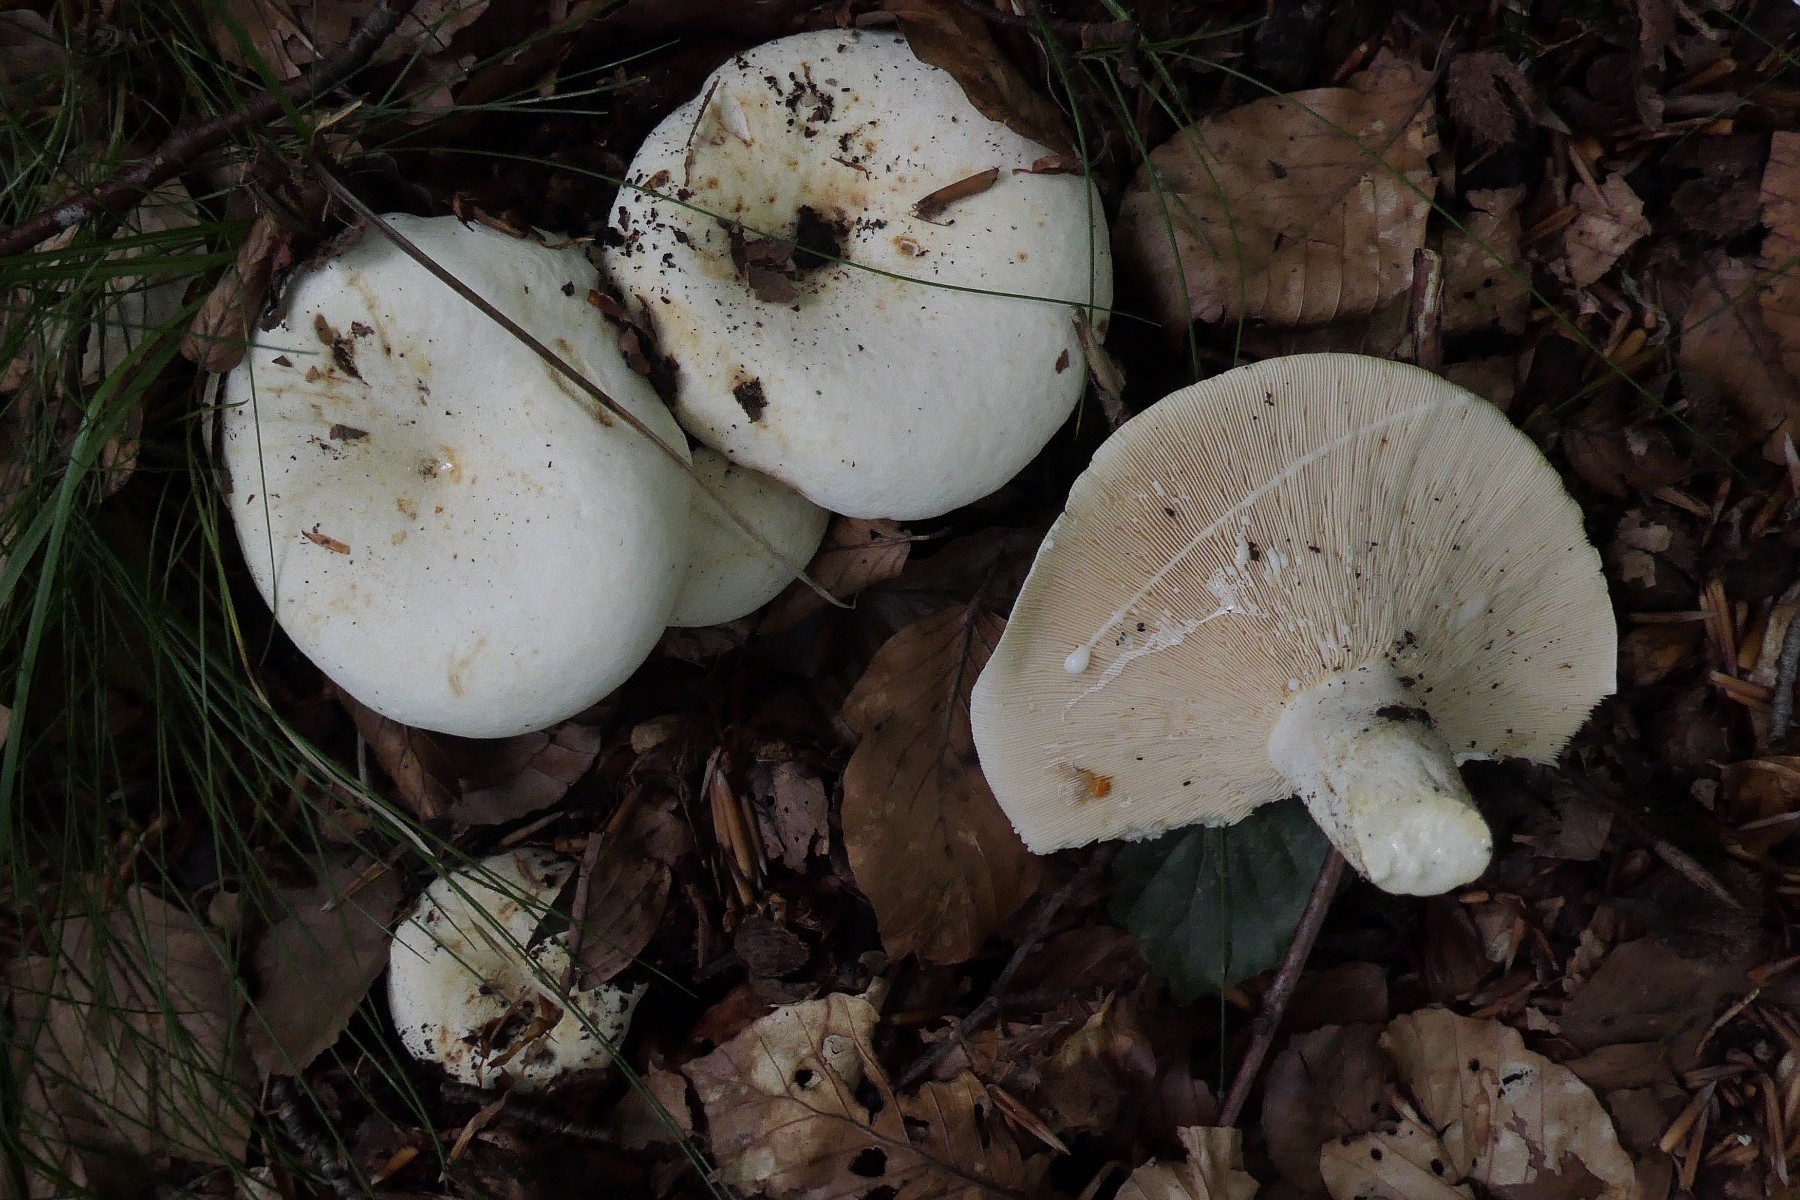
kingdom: Fungi
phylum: Basidiomycota
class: Agaricomycetes
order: Russulales
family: Russulaceae
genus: Lactifluus
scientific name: Lactifluus piperatus
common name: peber-mælkehat
